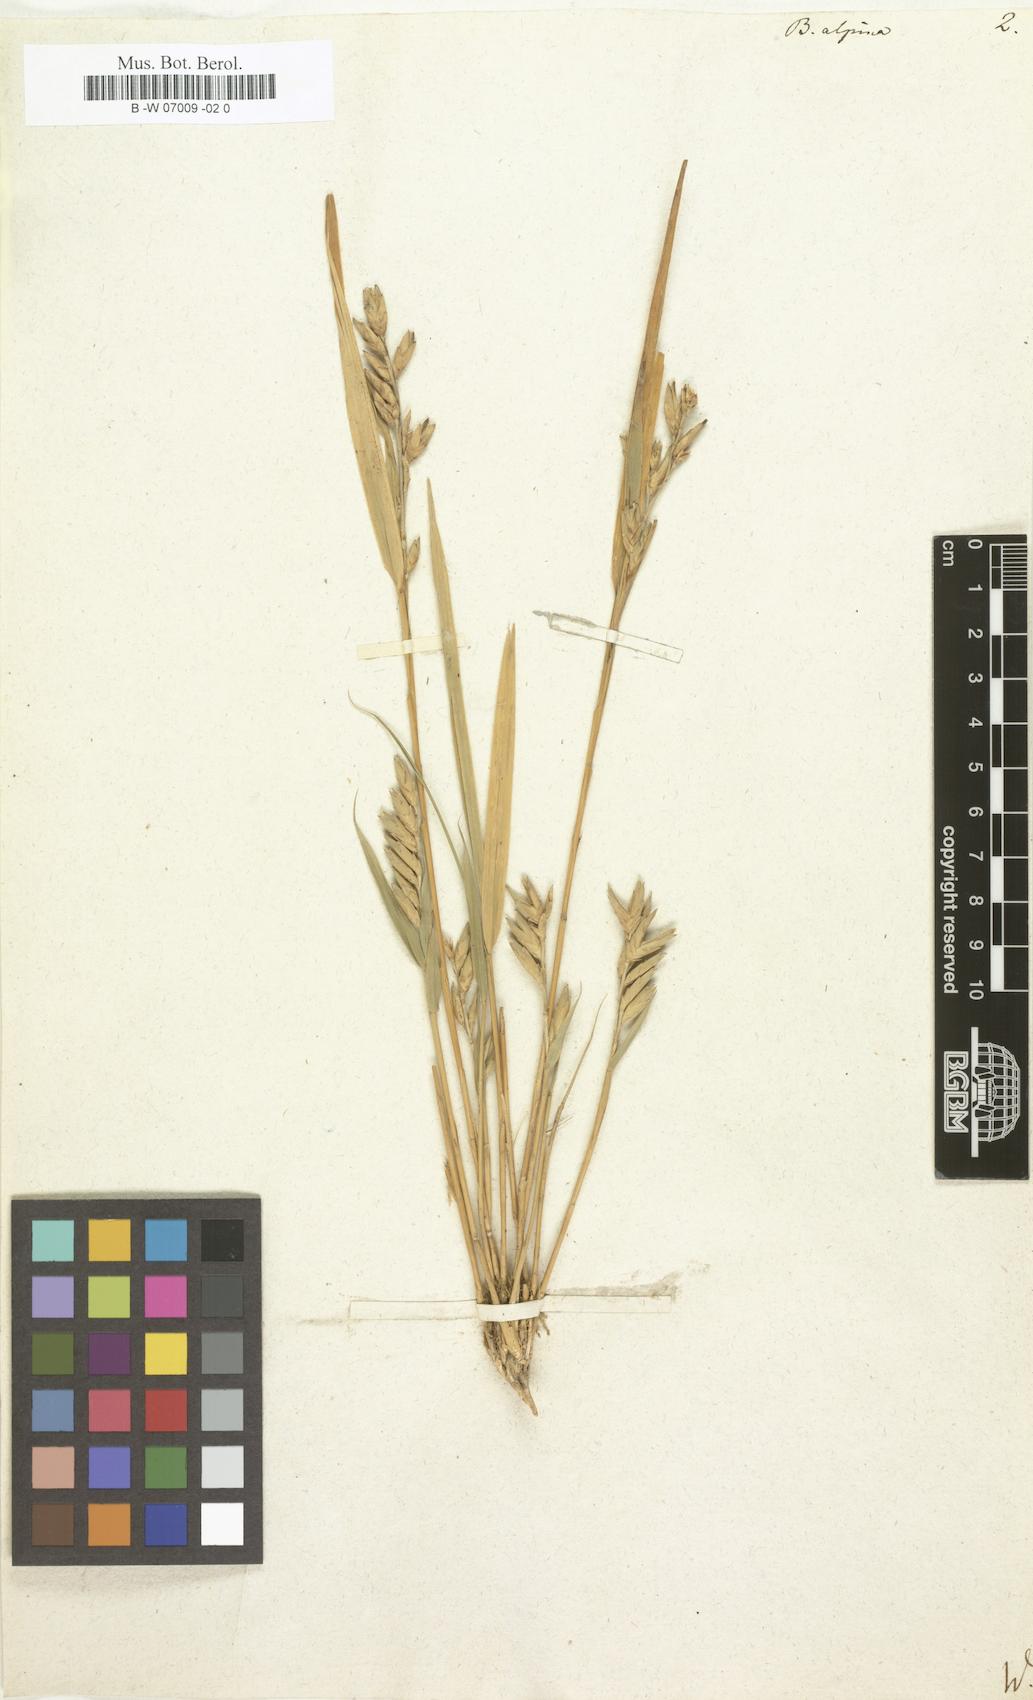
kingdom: Plantae
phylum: Tracheophyta
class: Liliopsida
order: Poales
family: Poaceae
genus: Nastus
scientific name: Nastus borbonicus
